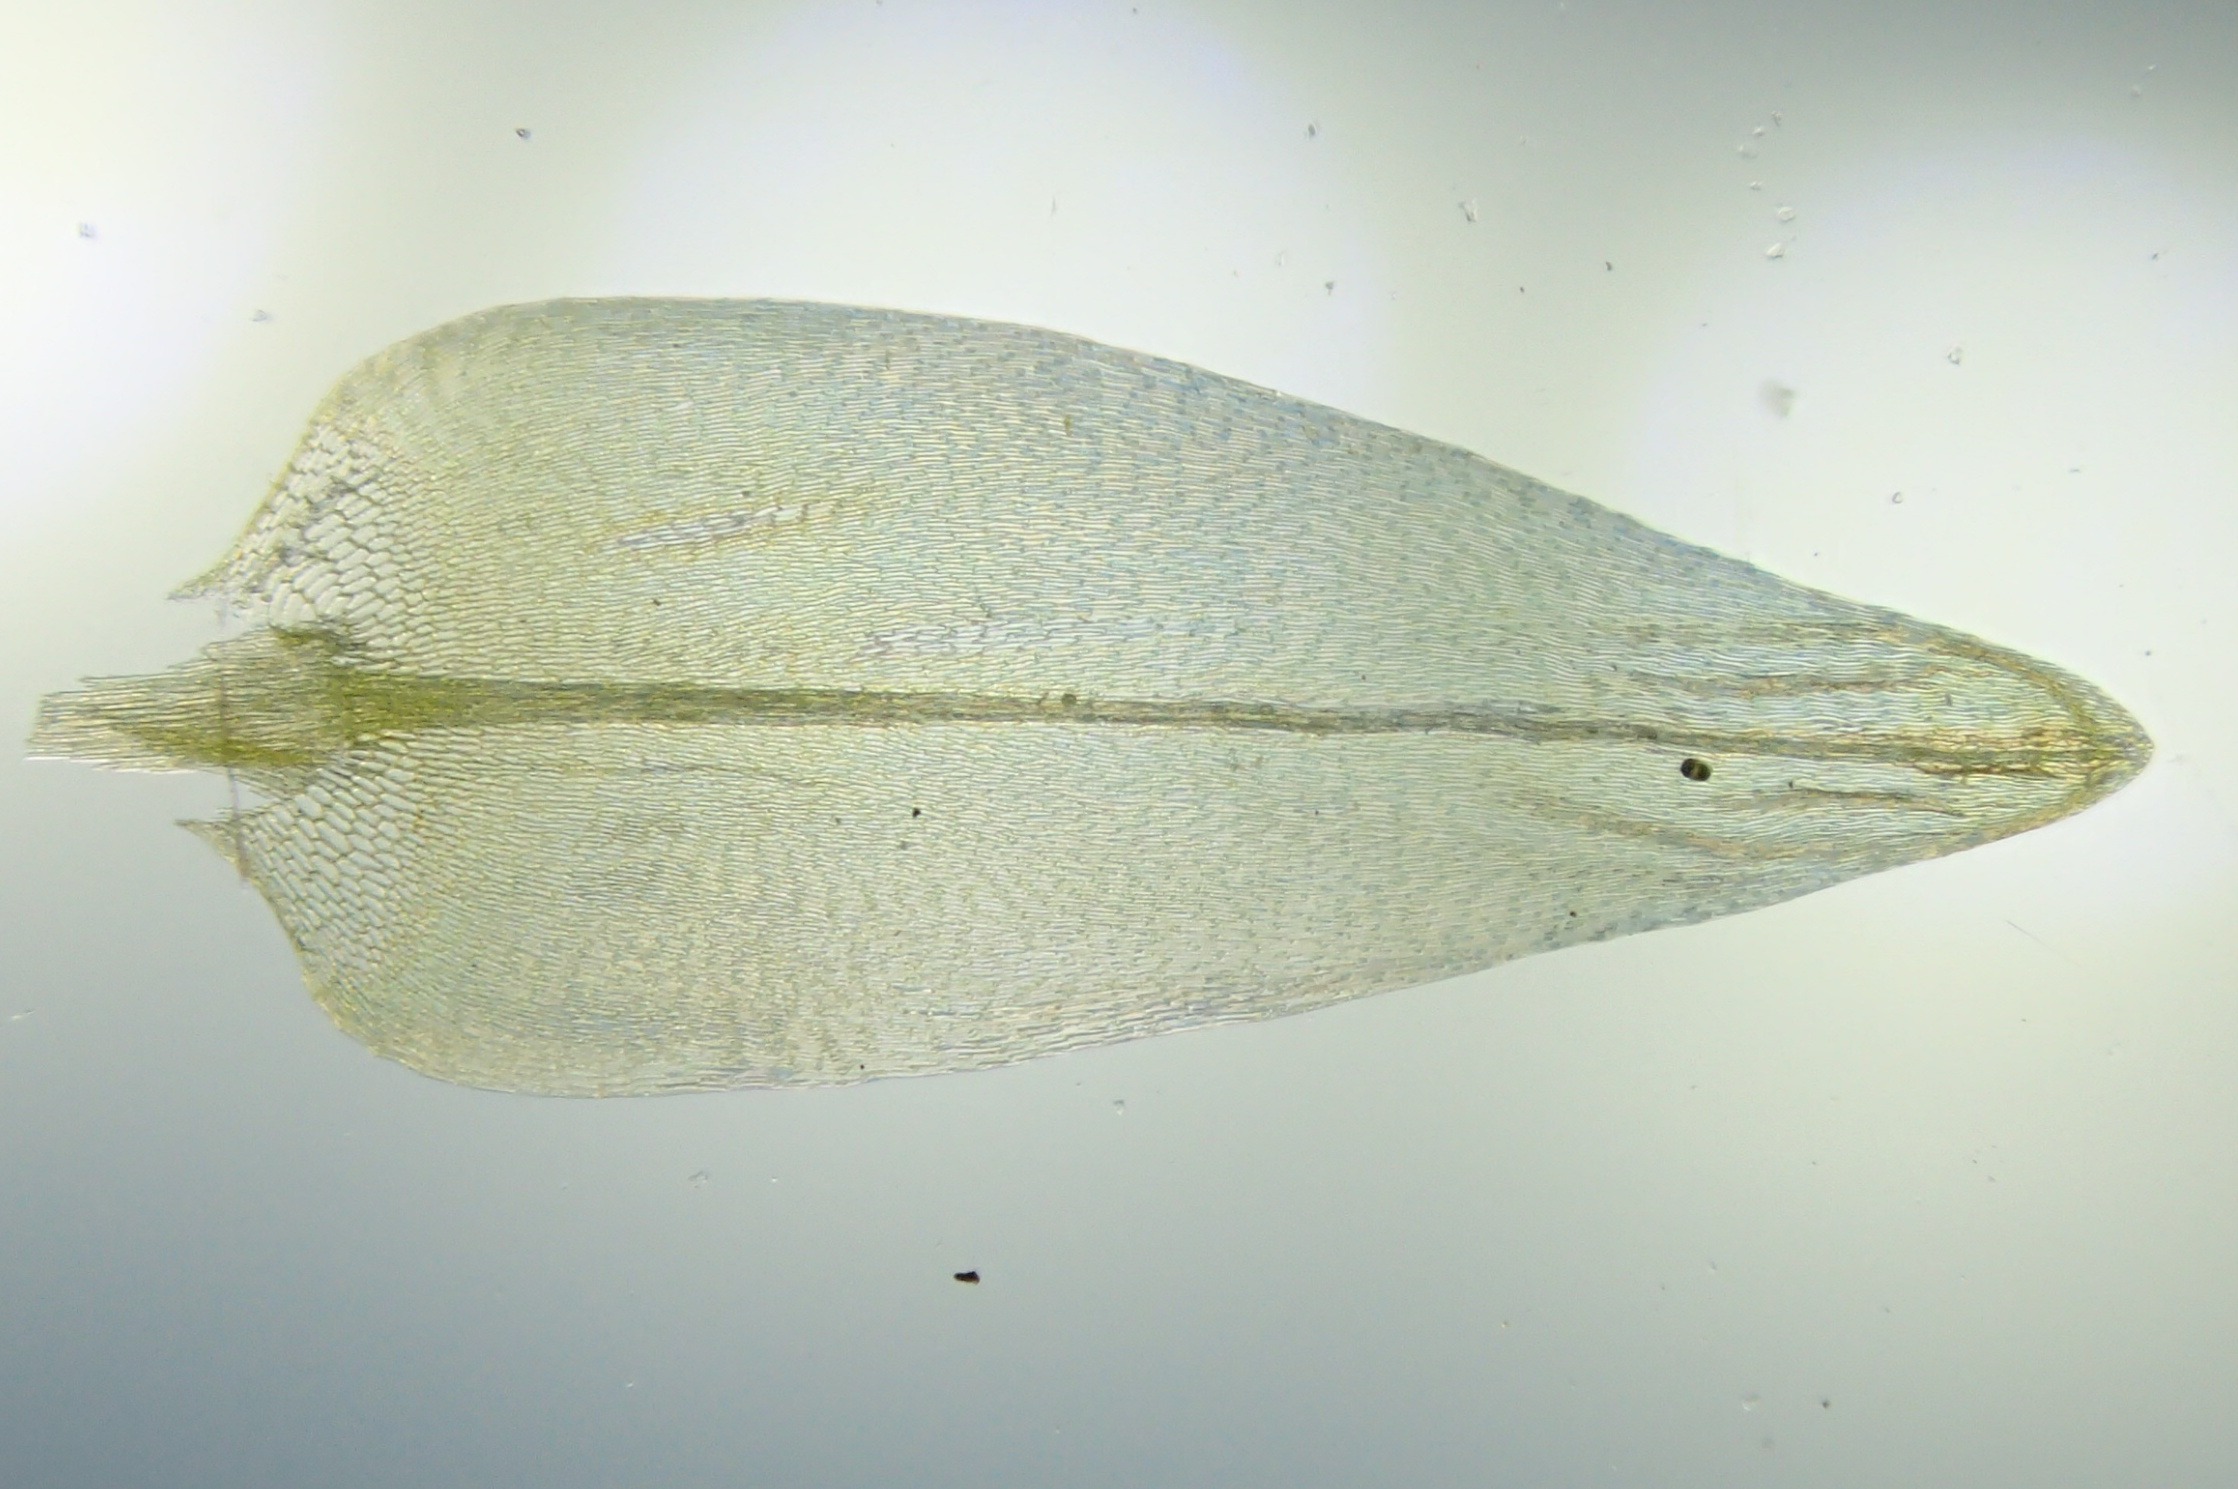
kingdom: Plantae
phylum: Bryophyta
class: Bryopsida
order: Hypnales
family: Calliergonaceae
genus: Calliergon
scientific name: Calliergon cordifolium
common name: Almindelig skebladsmos
